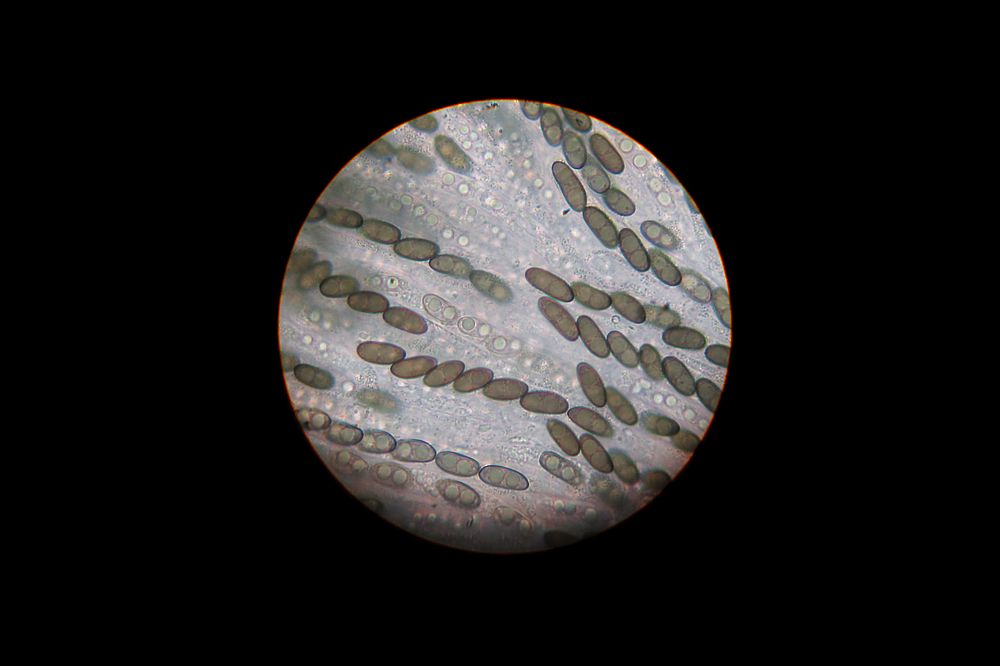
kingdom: Fungi
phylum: Ascomycota
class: Sordariomycetes
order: Xylariales
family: Xylariaceae
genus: Nemania
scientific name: Nemania serpens
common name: almindelig kuldyne
